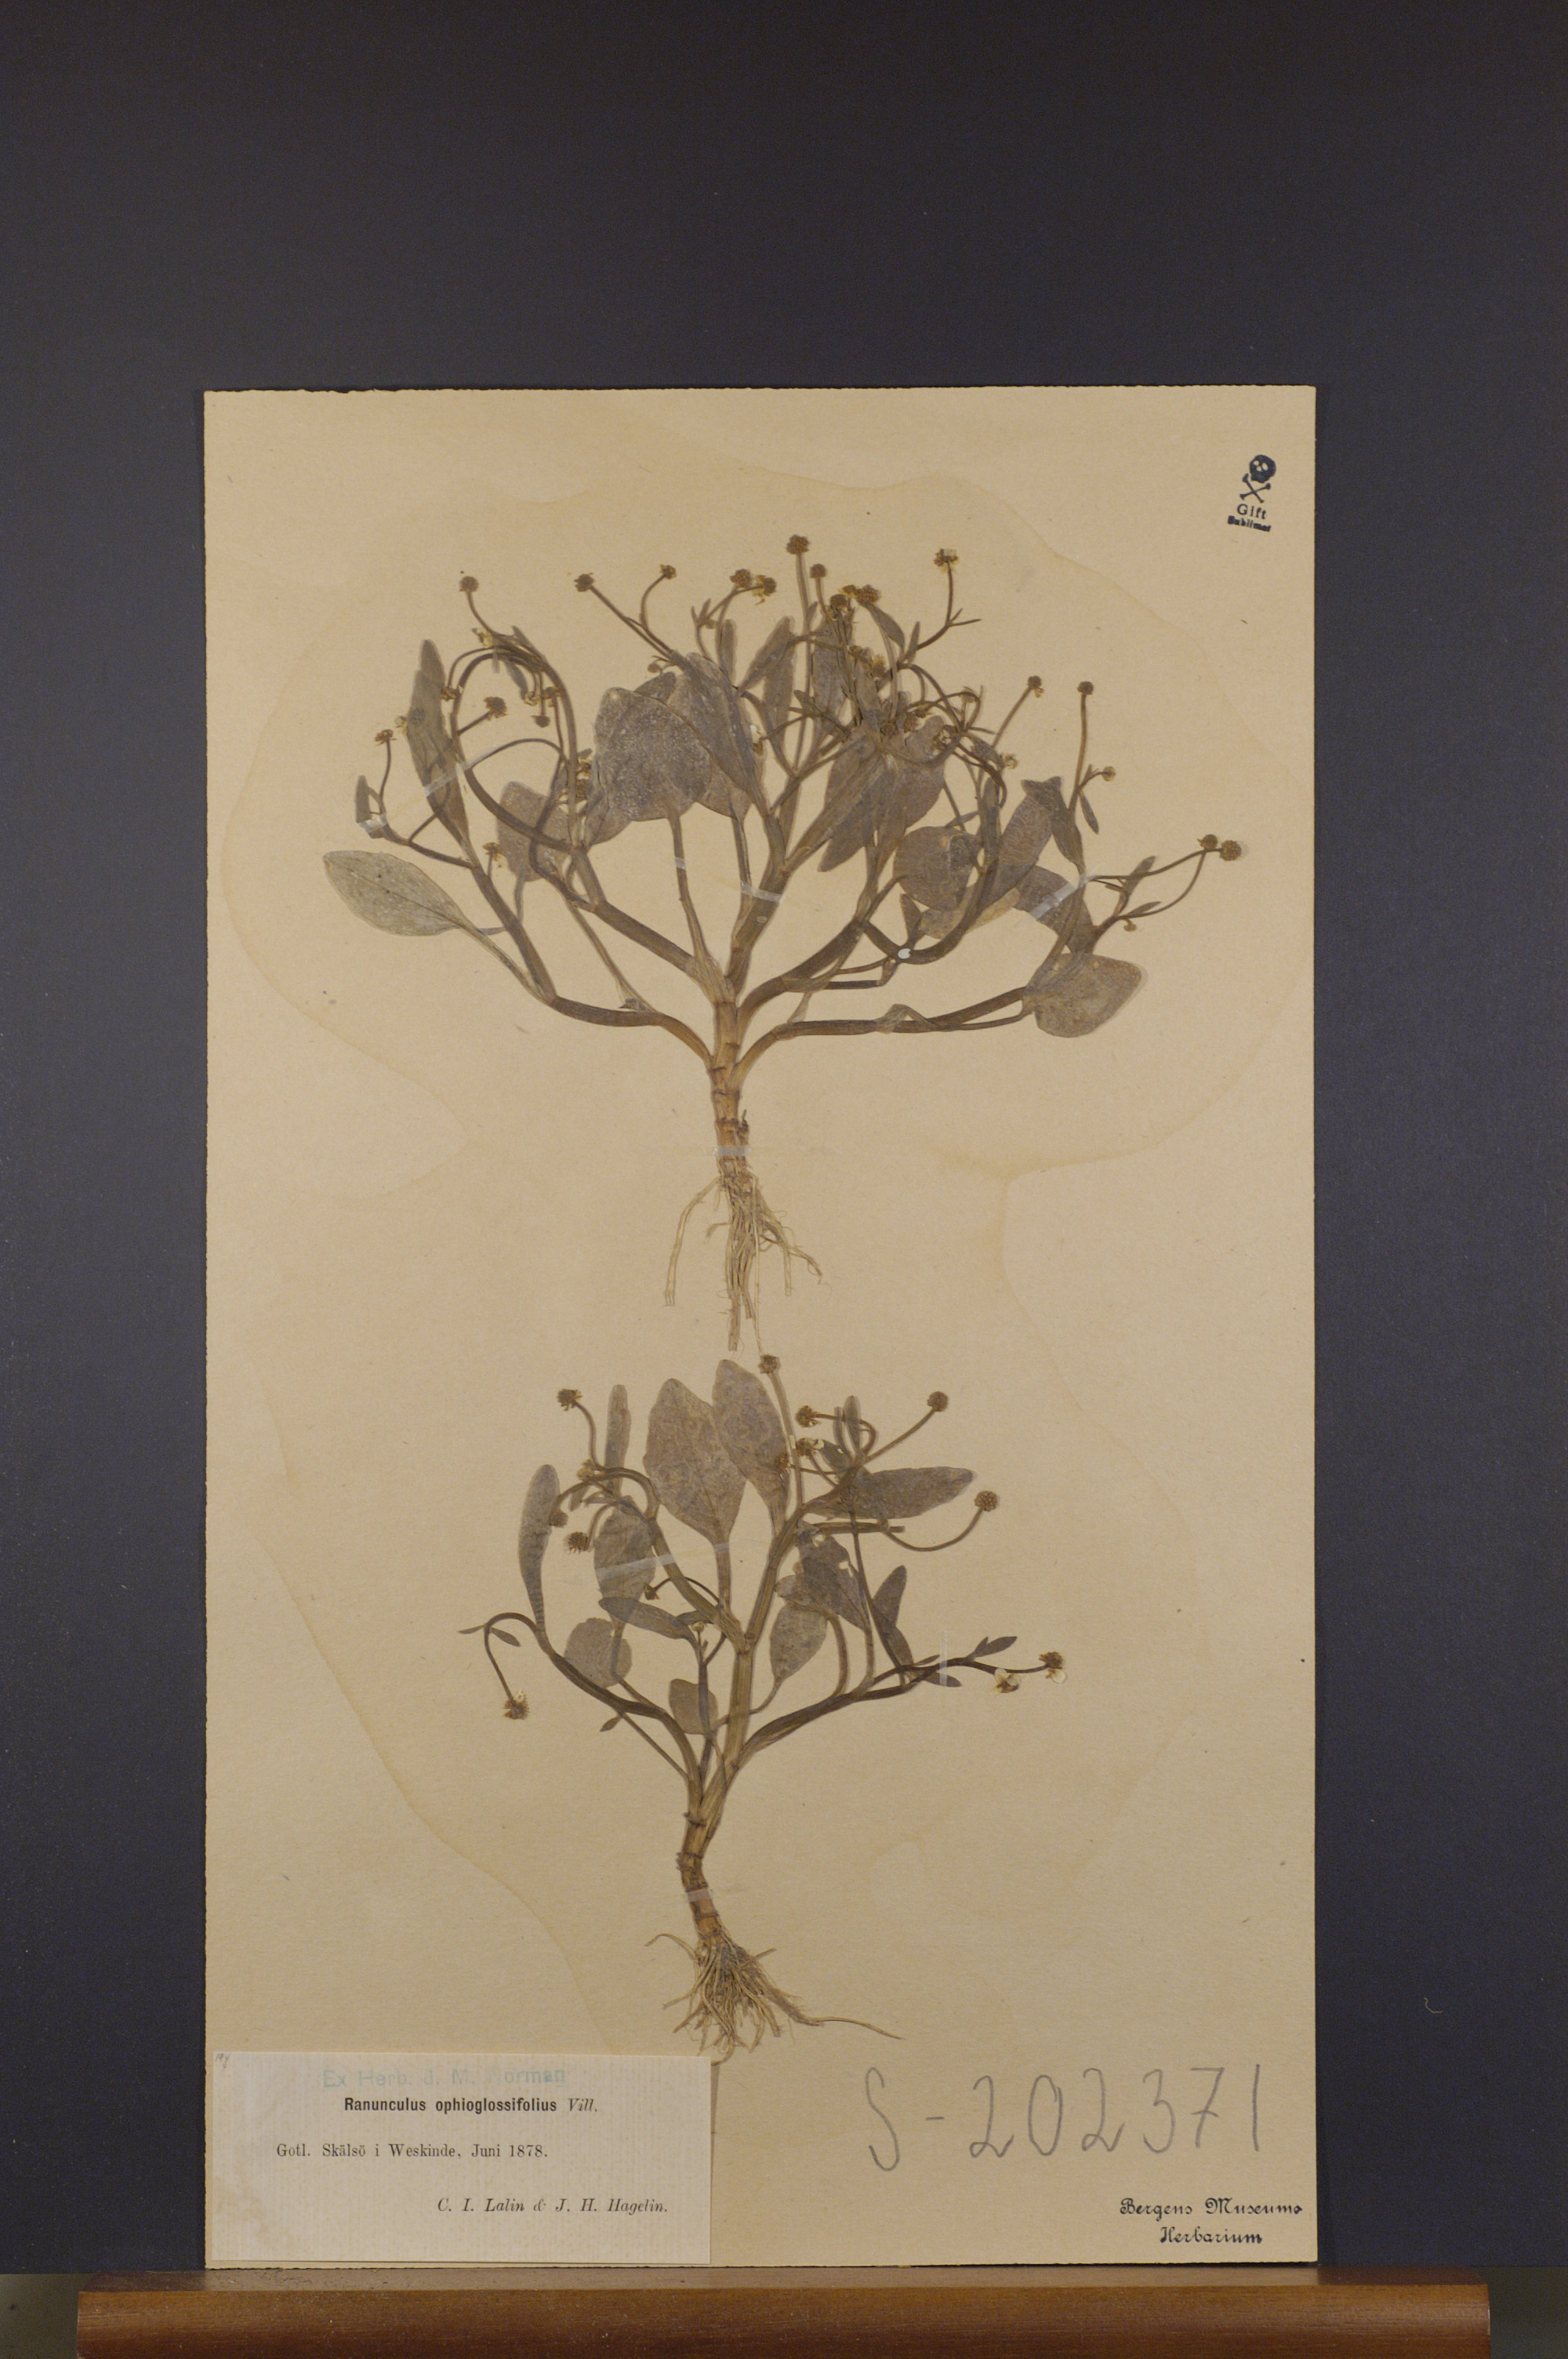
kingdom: Plantae
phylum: Tracheophyta
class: Magnoliopsida
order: Ranunculales
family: Ranunculaceae
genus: Ranunculus
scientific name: Ranunculus ophioglossifolius
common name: Adder's-tongue spearwort
